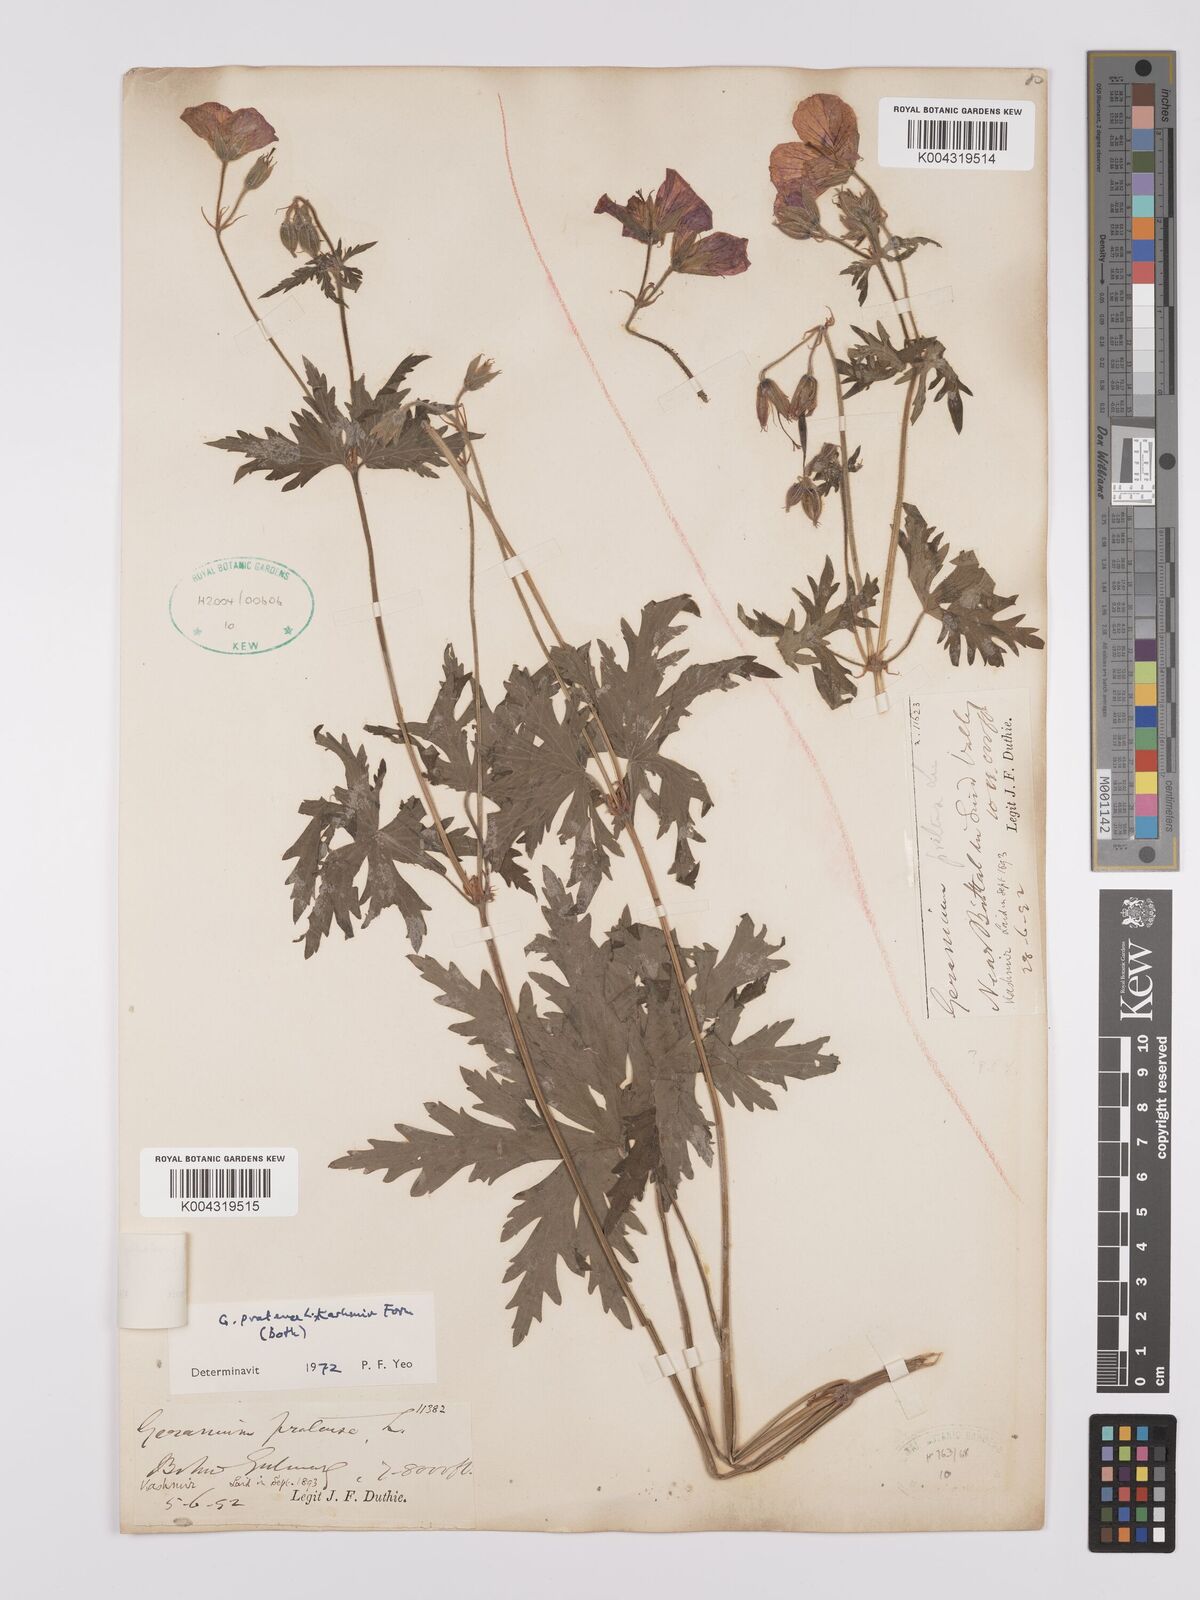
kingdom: Plantae
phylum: Tracheophyta
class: Magnoliopsida
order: Geraniales
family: Geraniaceae
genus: Geranium
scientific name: Geranium clarkei
